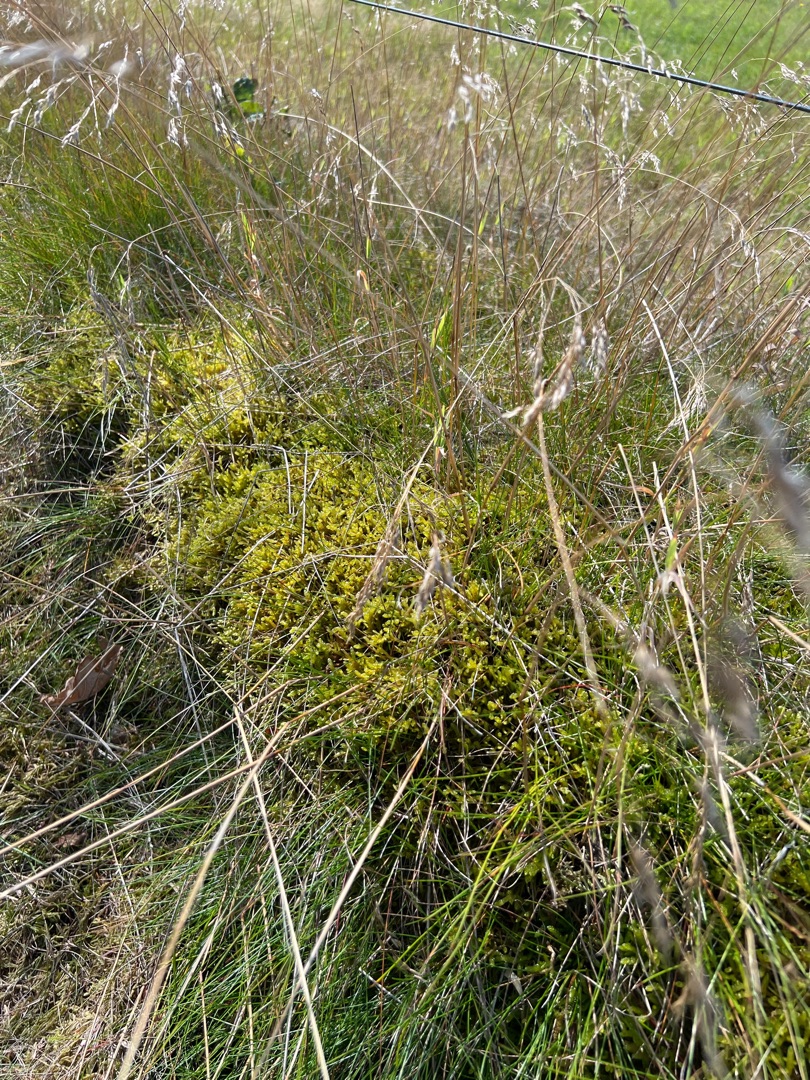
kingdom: Plantae
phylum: Bryophyta
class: Bryopsida
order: Hypnales
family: Brachytheciaceae
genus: Pseudoscleropodium
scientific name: Pseudoscleropodium purum
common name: Hulbladet fedtmos
